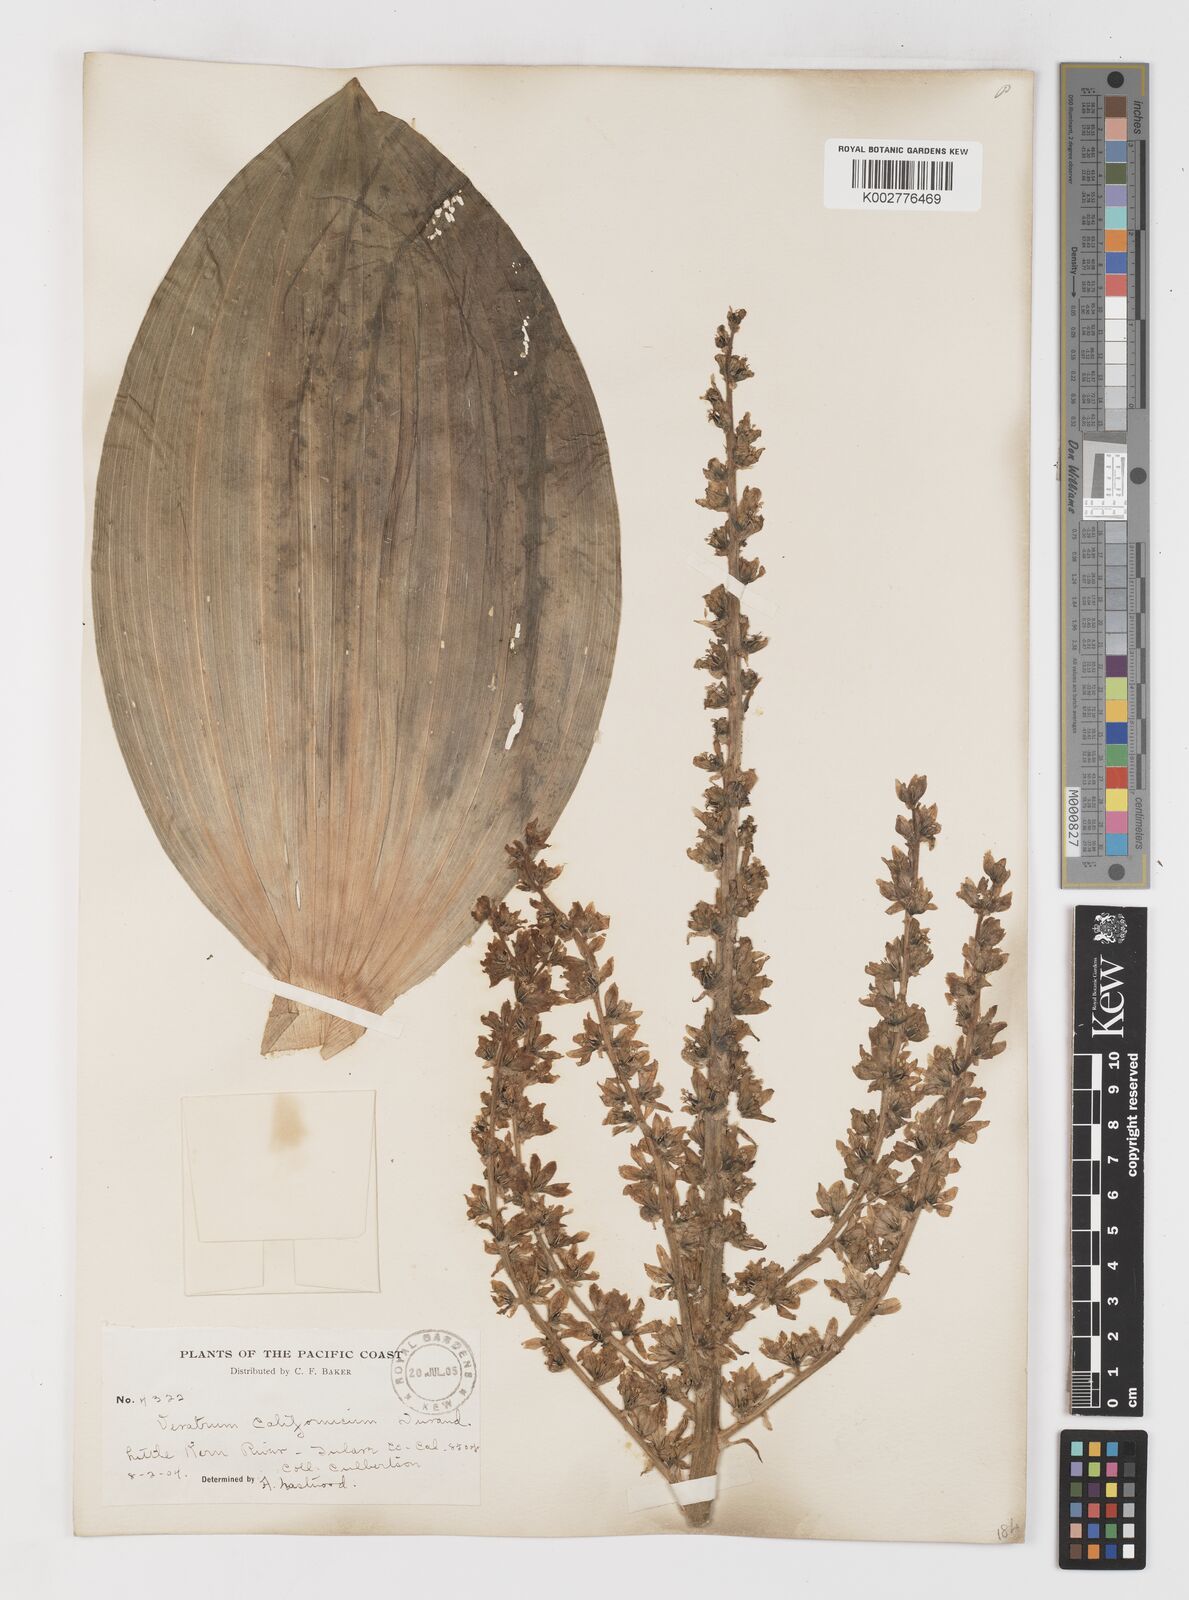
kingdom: Plantae
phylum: Tracheophyta
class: Liliopsida
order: Liliales
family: Melanthiaceae
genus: Veratrum
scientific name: Veratrum californicum
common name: California veratrum
